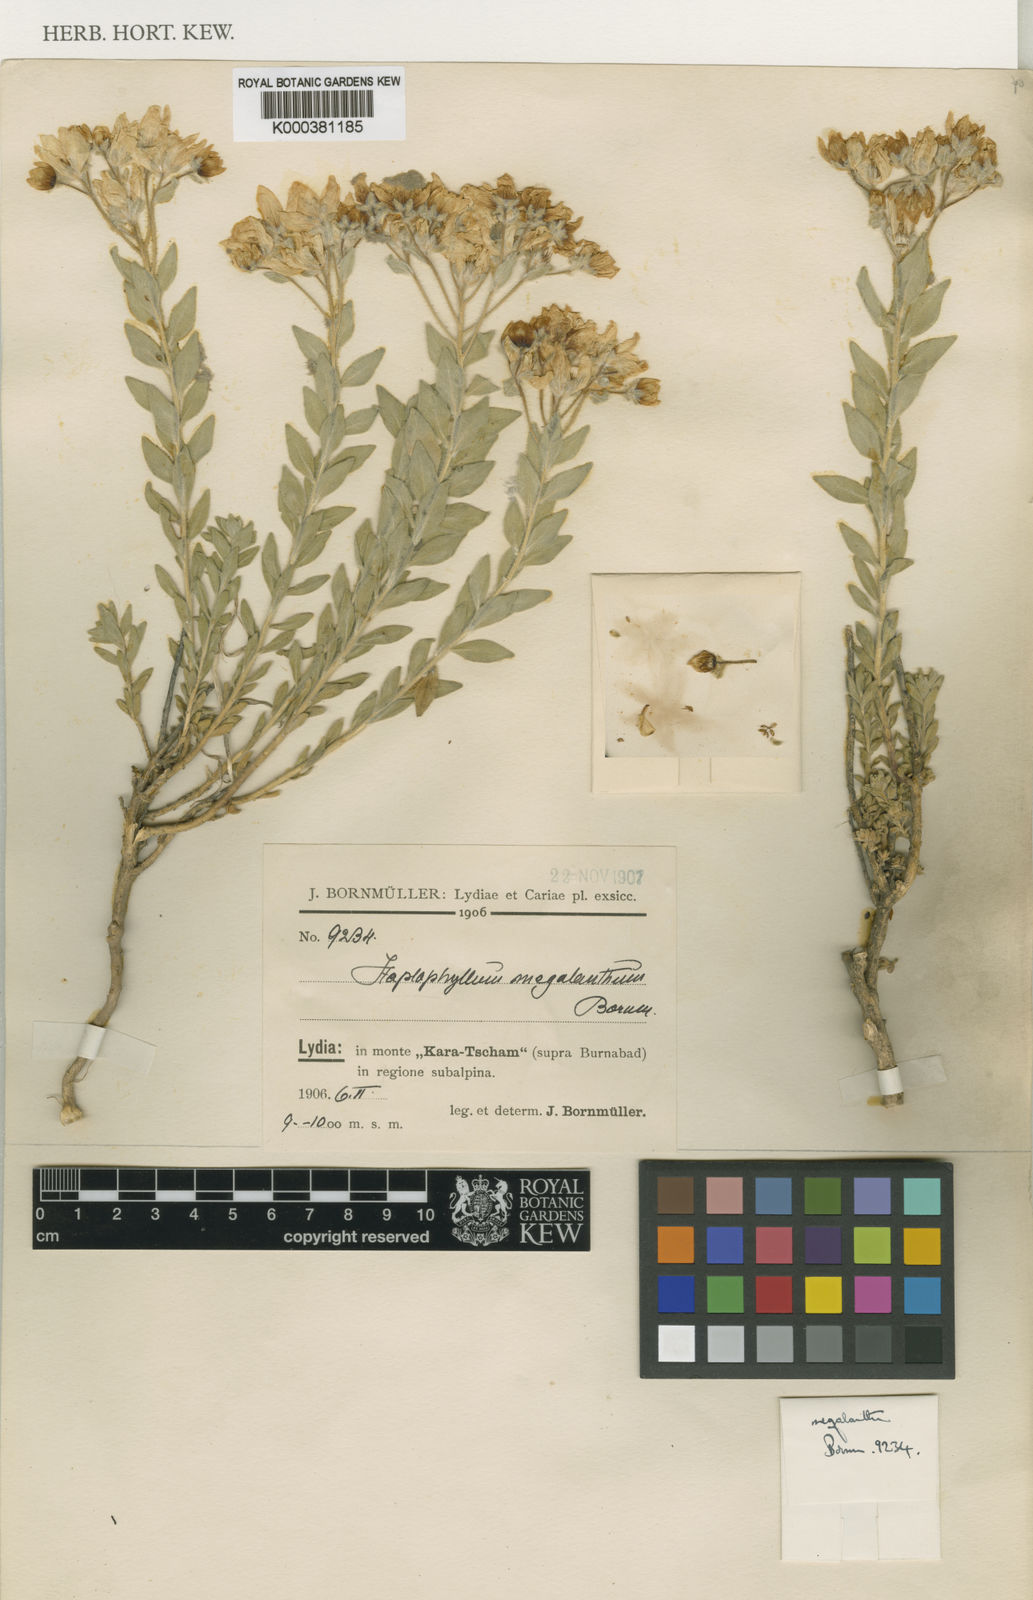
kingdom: Plantae
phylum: Tracheophyta
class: Magnoliopsida
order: Sapindales
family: Rutaceae
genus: Haplophyllum
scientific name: Haplophyllum megalanthum
